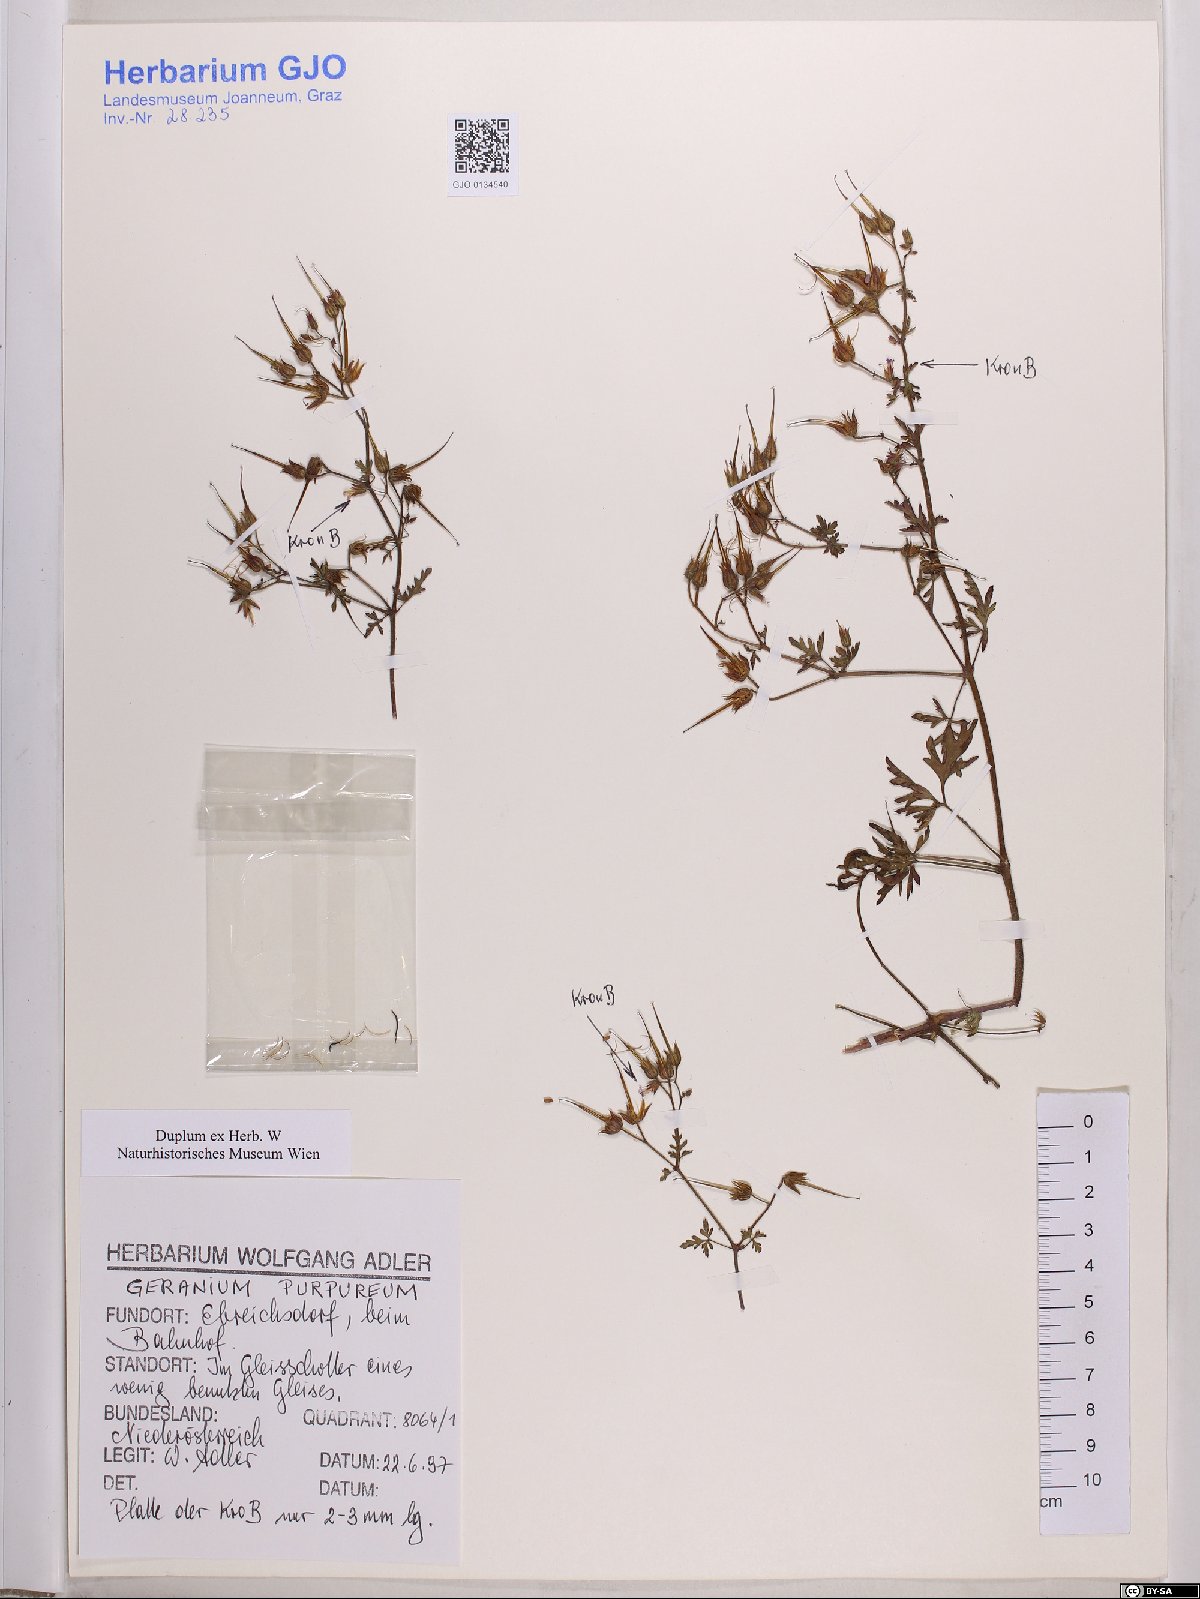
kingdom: Plantae
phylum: Tracheophyta
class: Magnoliopsida
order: Geraniales
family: Geraniaceae
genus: Geranium
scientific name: Geranium purpureum
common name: Little-robin
